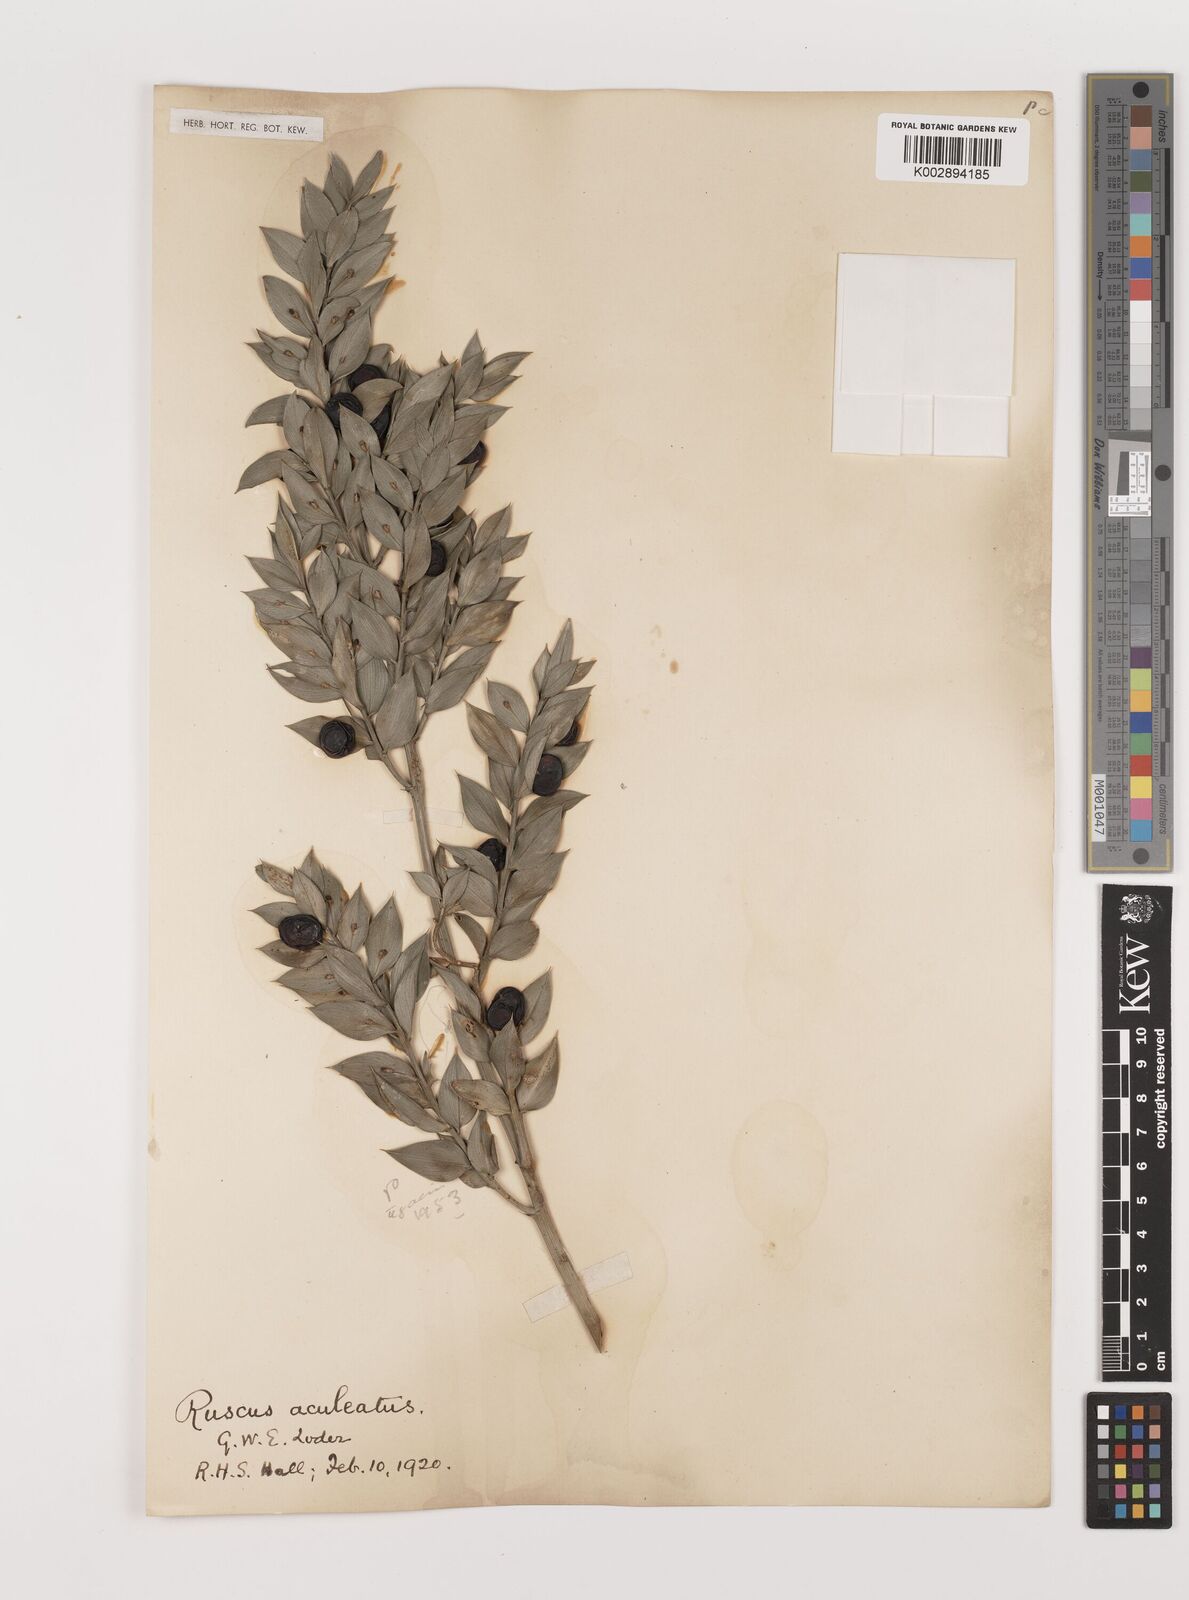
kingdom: Plantae
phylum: Tracheophyta
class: Liliopsida
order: Asparagales
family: Asparagaceae
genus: Ruscus
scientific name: Ruscus aculeatus
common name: Butcher's-broom
